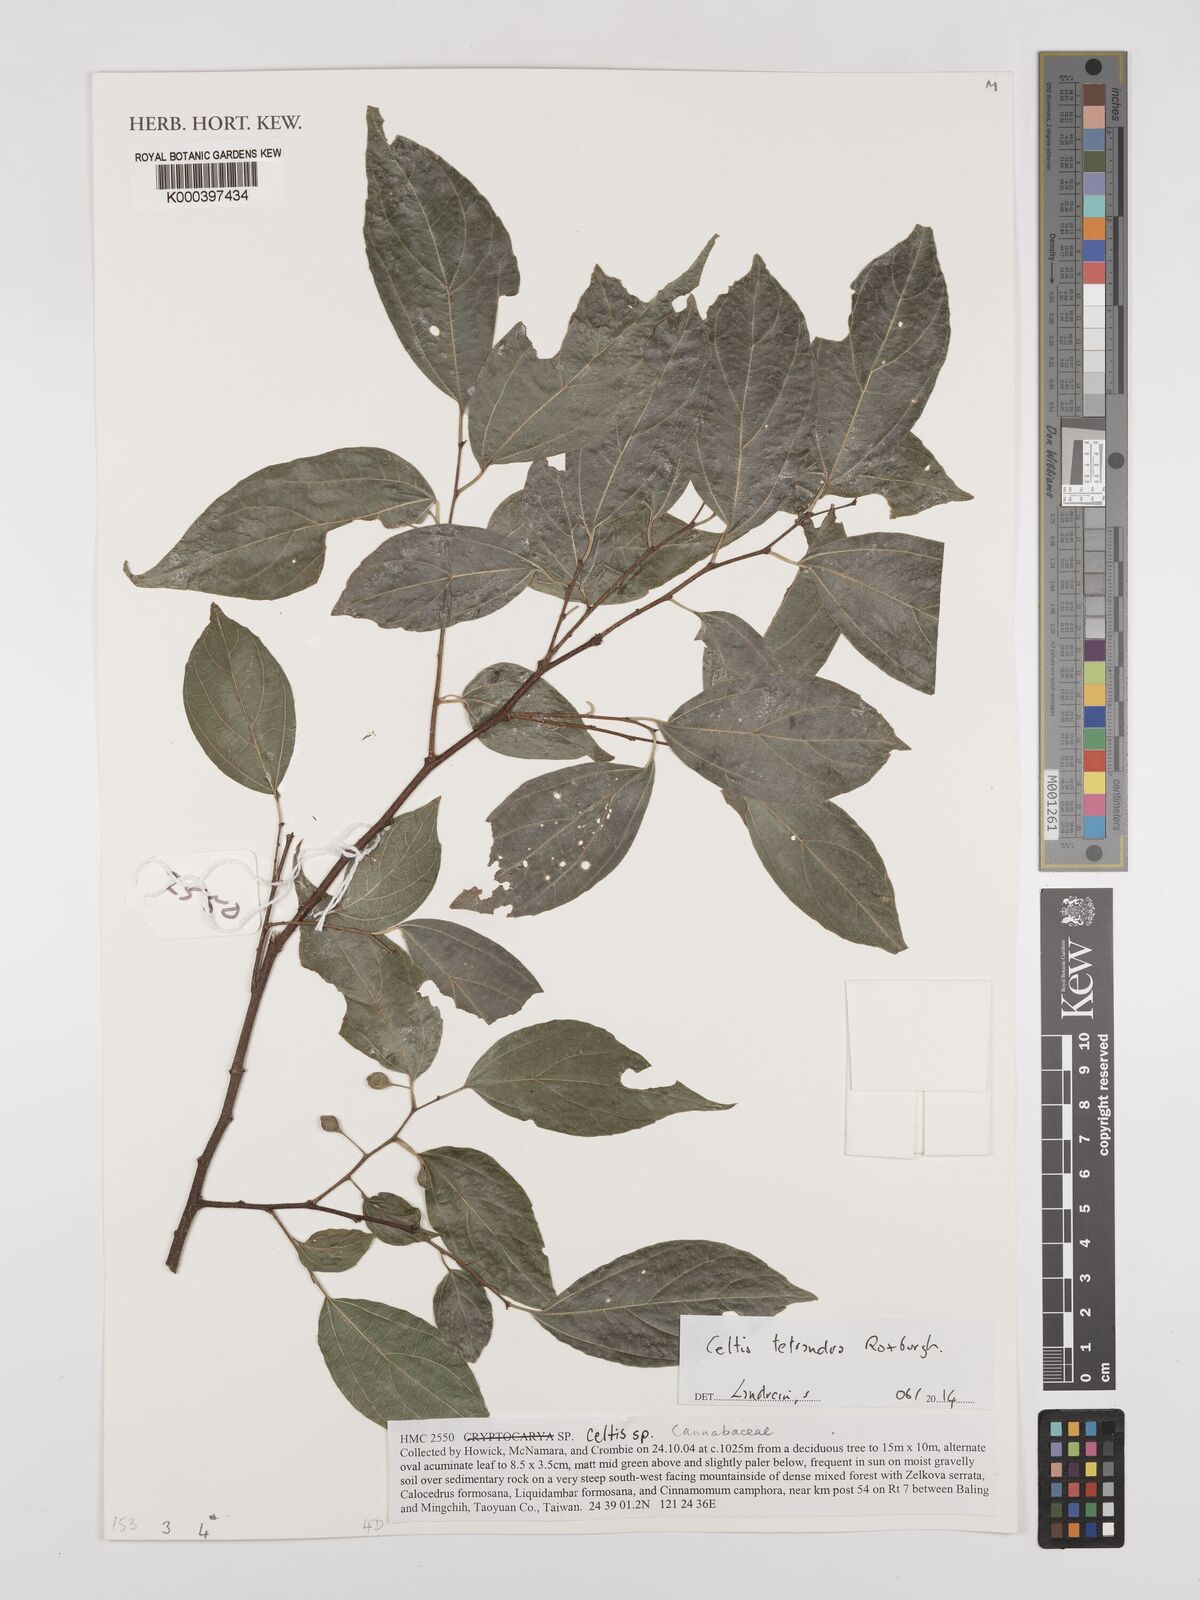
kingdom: Plantae
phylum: Tracheophyta
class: Magnoliopsida
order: Rosales
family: Cannabaceae
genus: Celtis
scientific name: Celtis tetrandra
